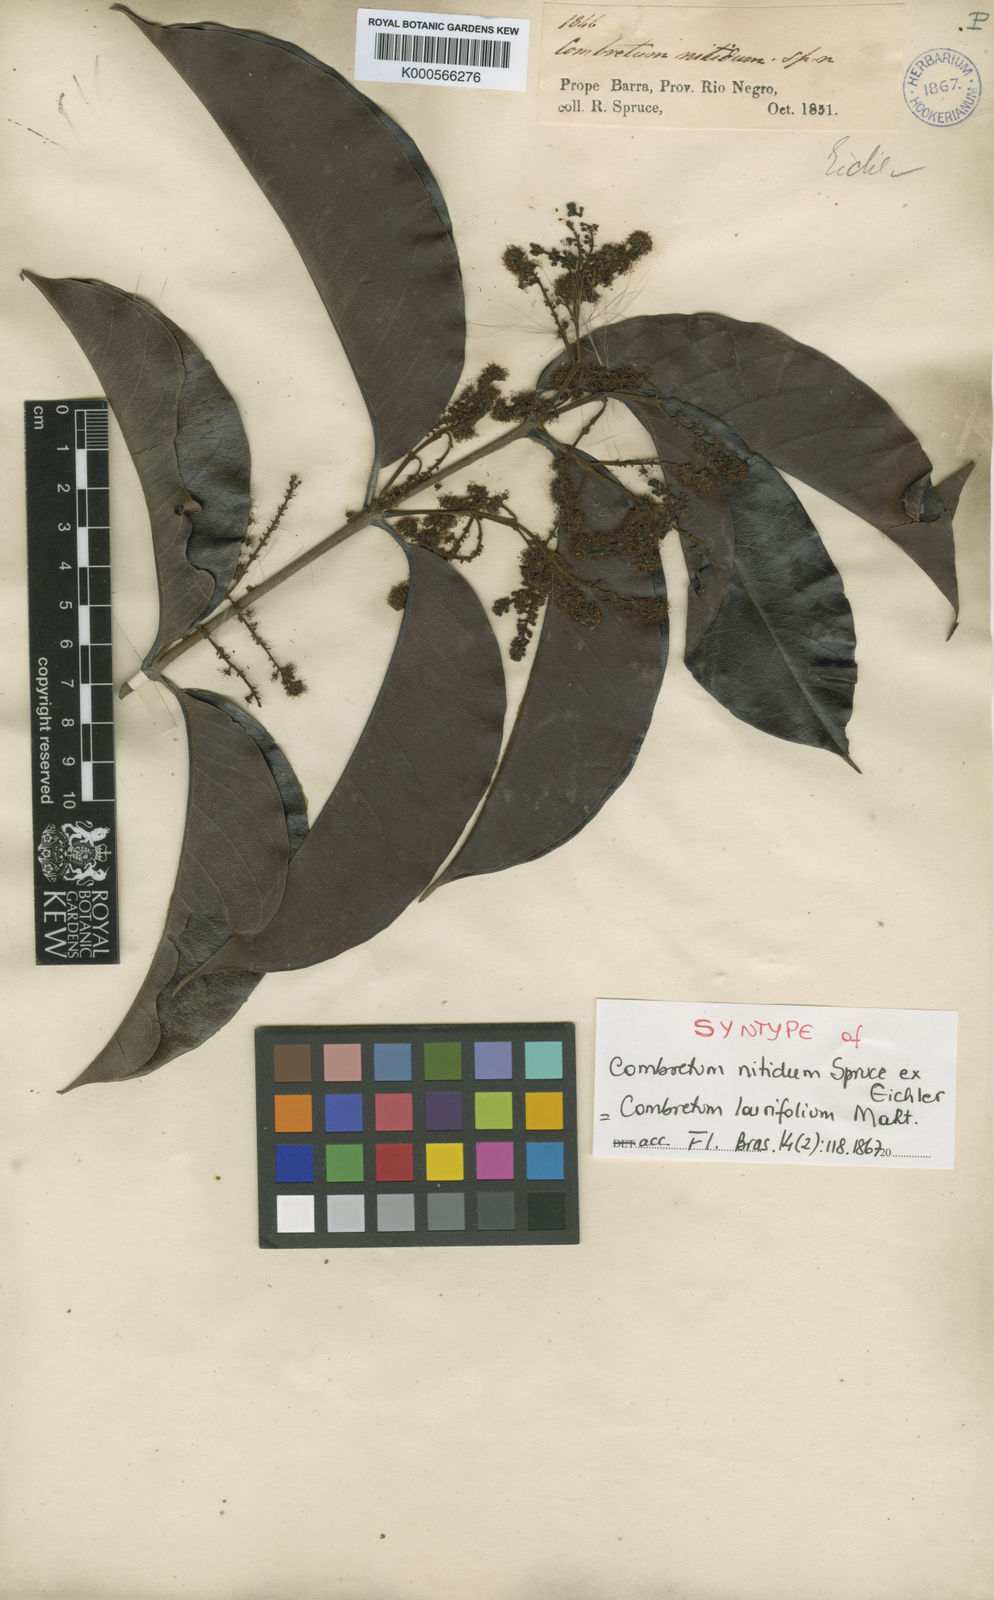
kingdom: Plantae
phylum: Tracheophyta
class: Magnoliopsida
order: Myrtales
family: Combretaceae
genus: Combretum
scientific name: Combretum laurifolium
